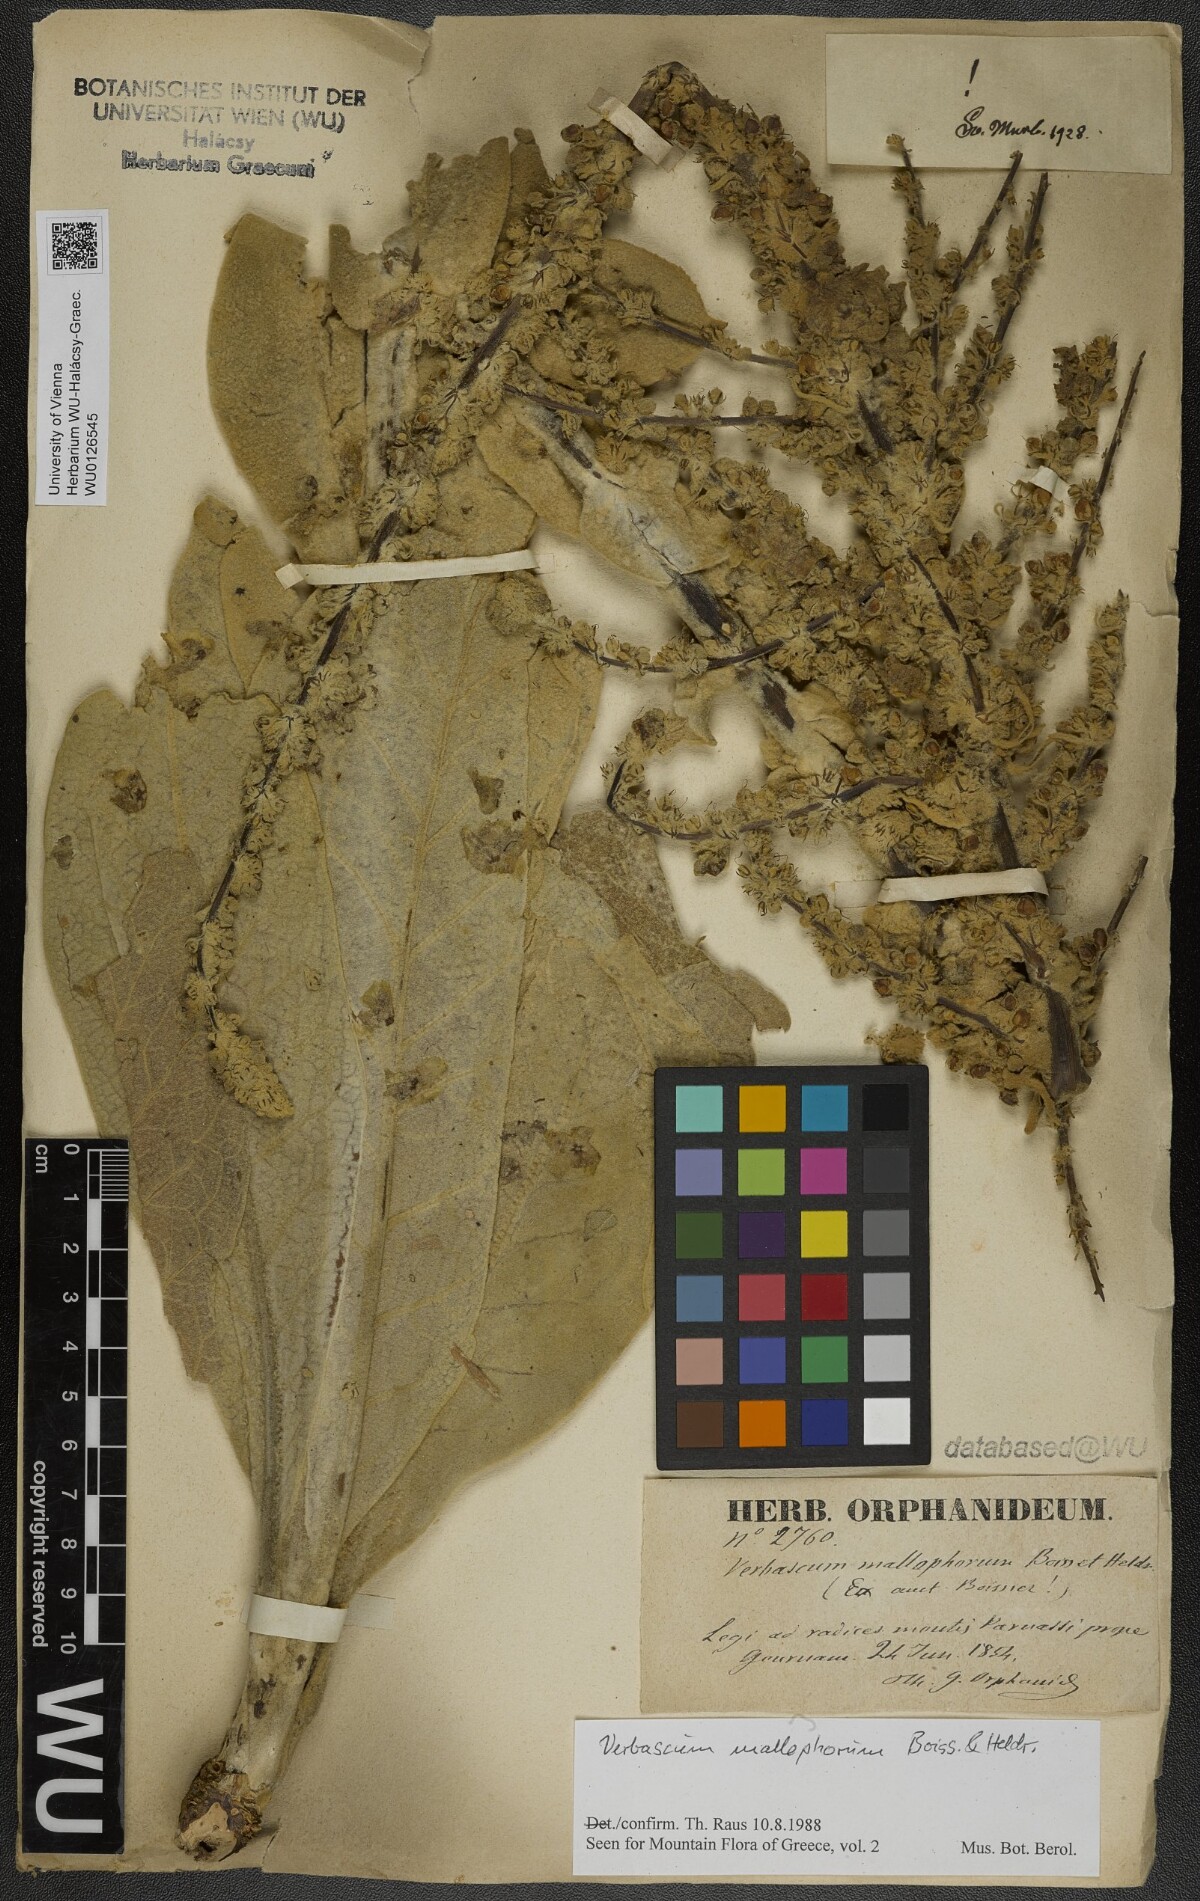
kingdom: Plantae
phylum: Tracheophyta
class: Magnoliopsida
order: Lamiales
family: Scrophulariaceae
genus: Verbascum
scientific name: Verbascum mallophorum
